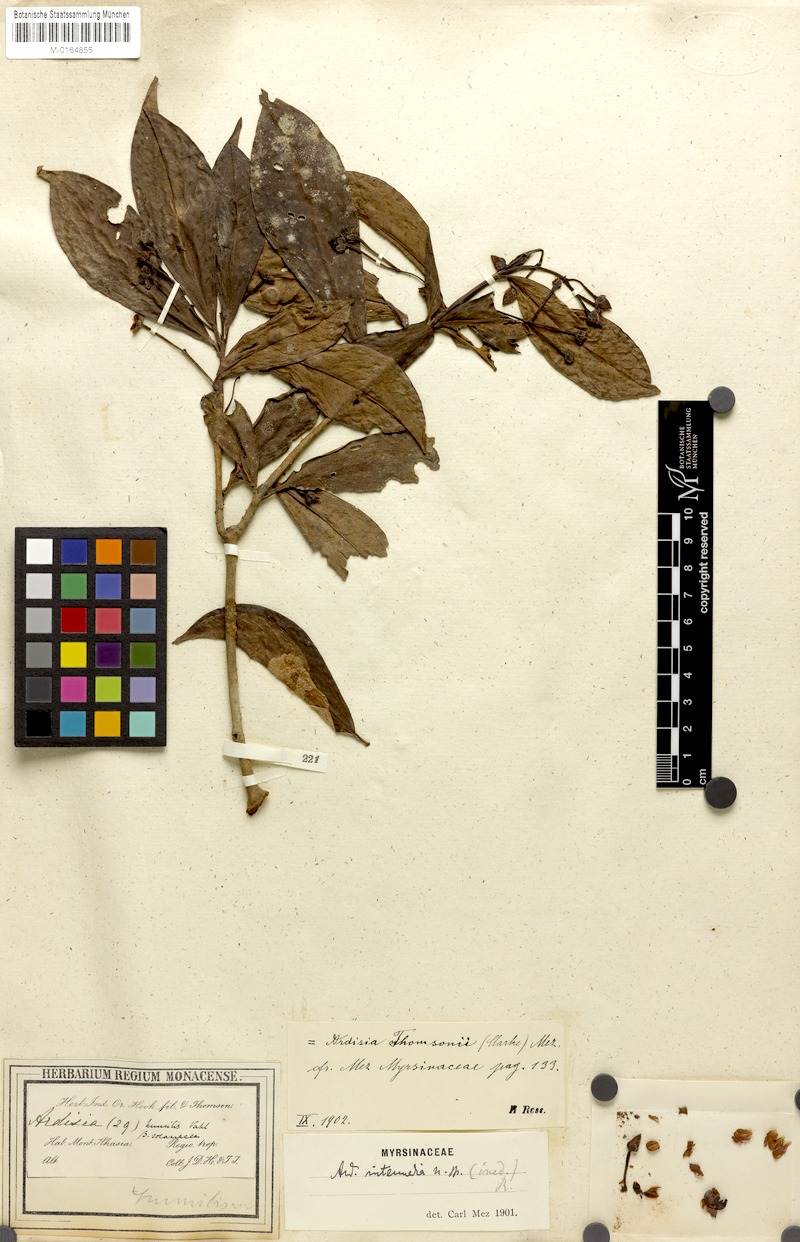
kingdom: Plantae
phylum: Tracheophyta
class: Magnoliopsida
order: Ericales
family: Primulaceae
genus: Ardisia
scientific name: Ardisia humilis
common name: Low shoebutton
